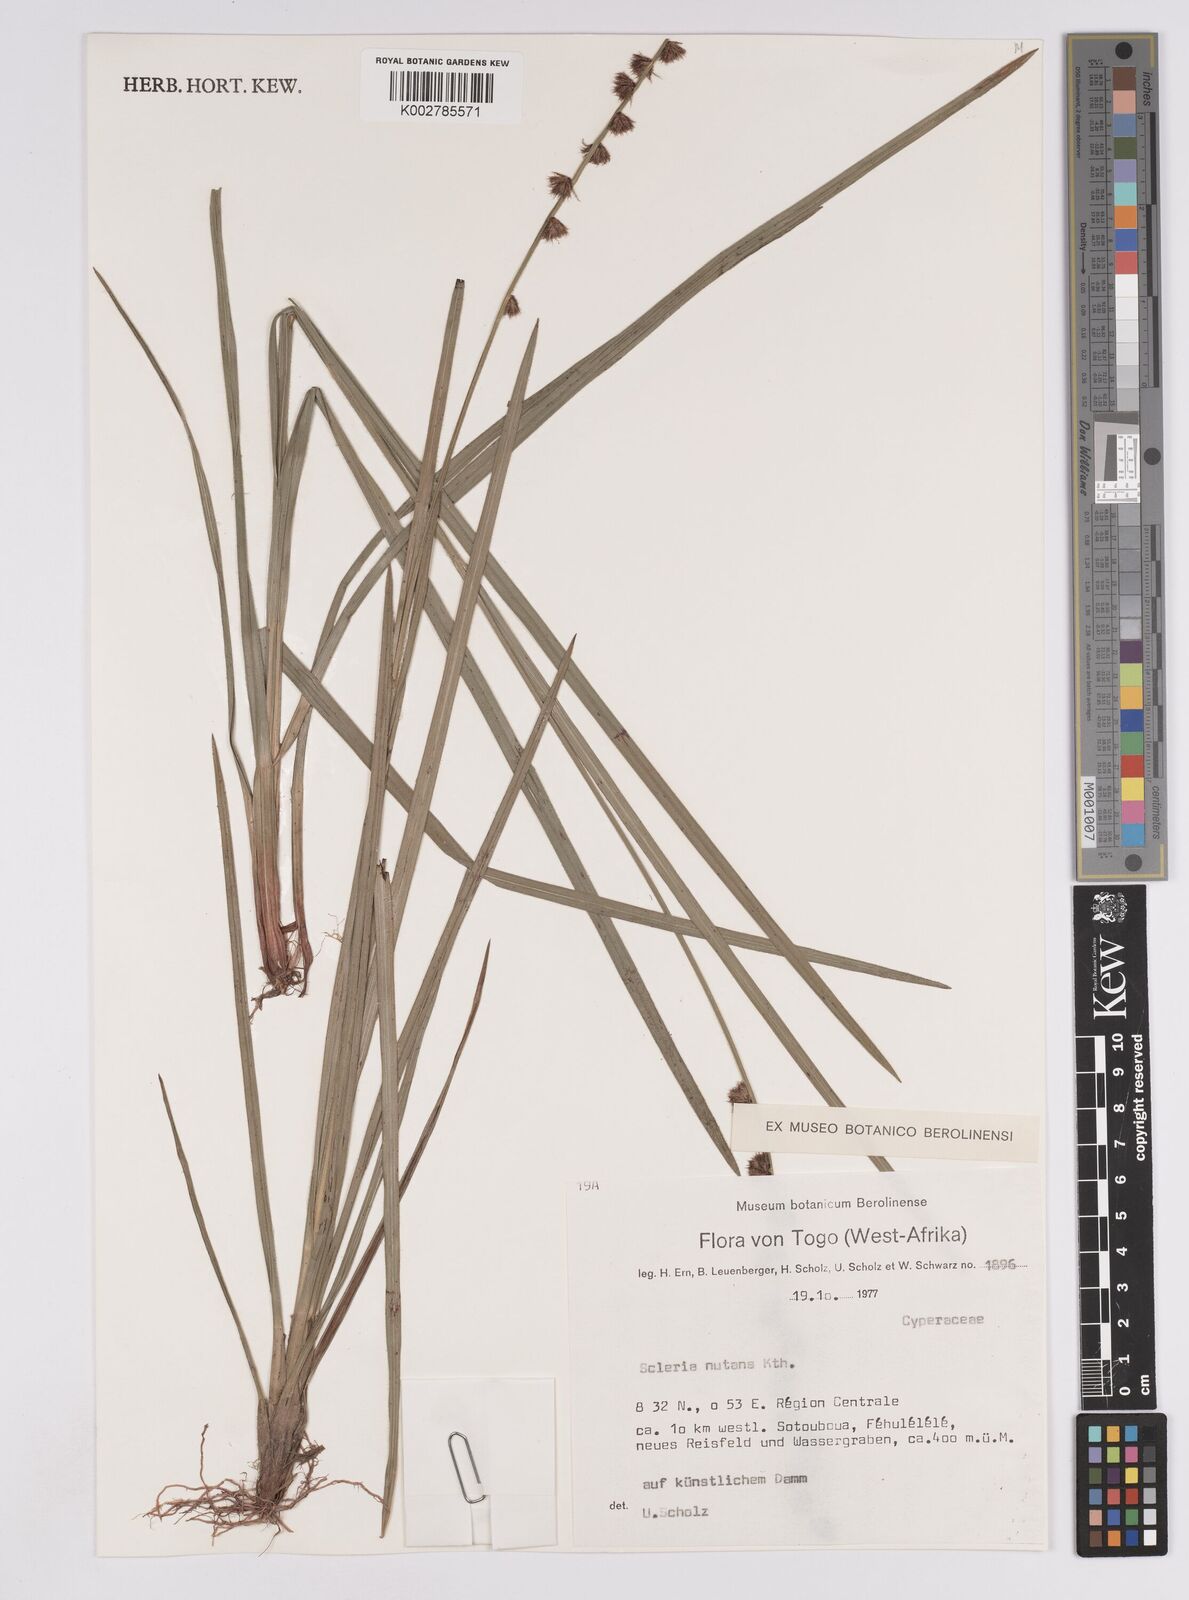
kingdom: Plantae
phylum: Tracheophyta
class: Liliopsida
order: Poales
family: Cyperaceae
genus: Scleria
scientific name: Scleria distans
